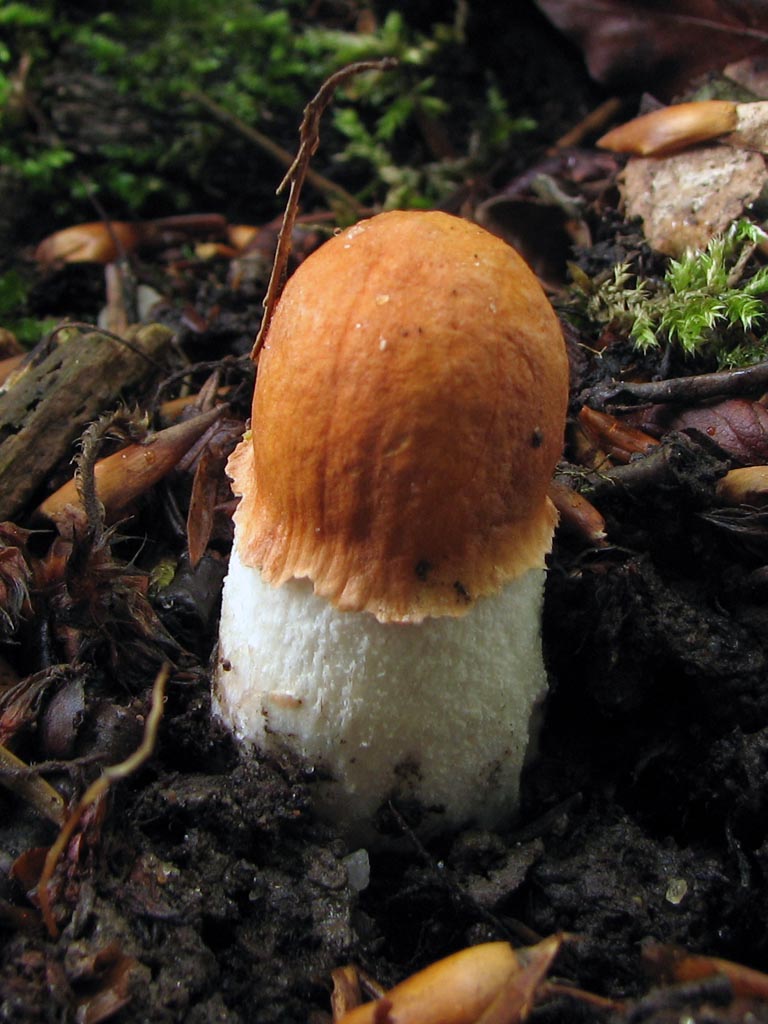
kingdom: Fungi
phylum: Basidiomycota
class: Agaricomycetes
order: Boletales
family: Boletaceae
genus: Leccinum
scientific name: Leccinum albostipitatum
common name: aspe-skælrørhat
